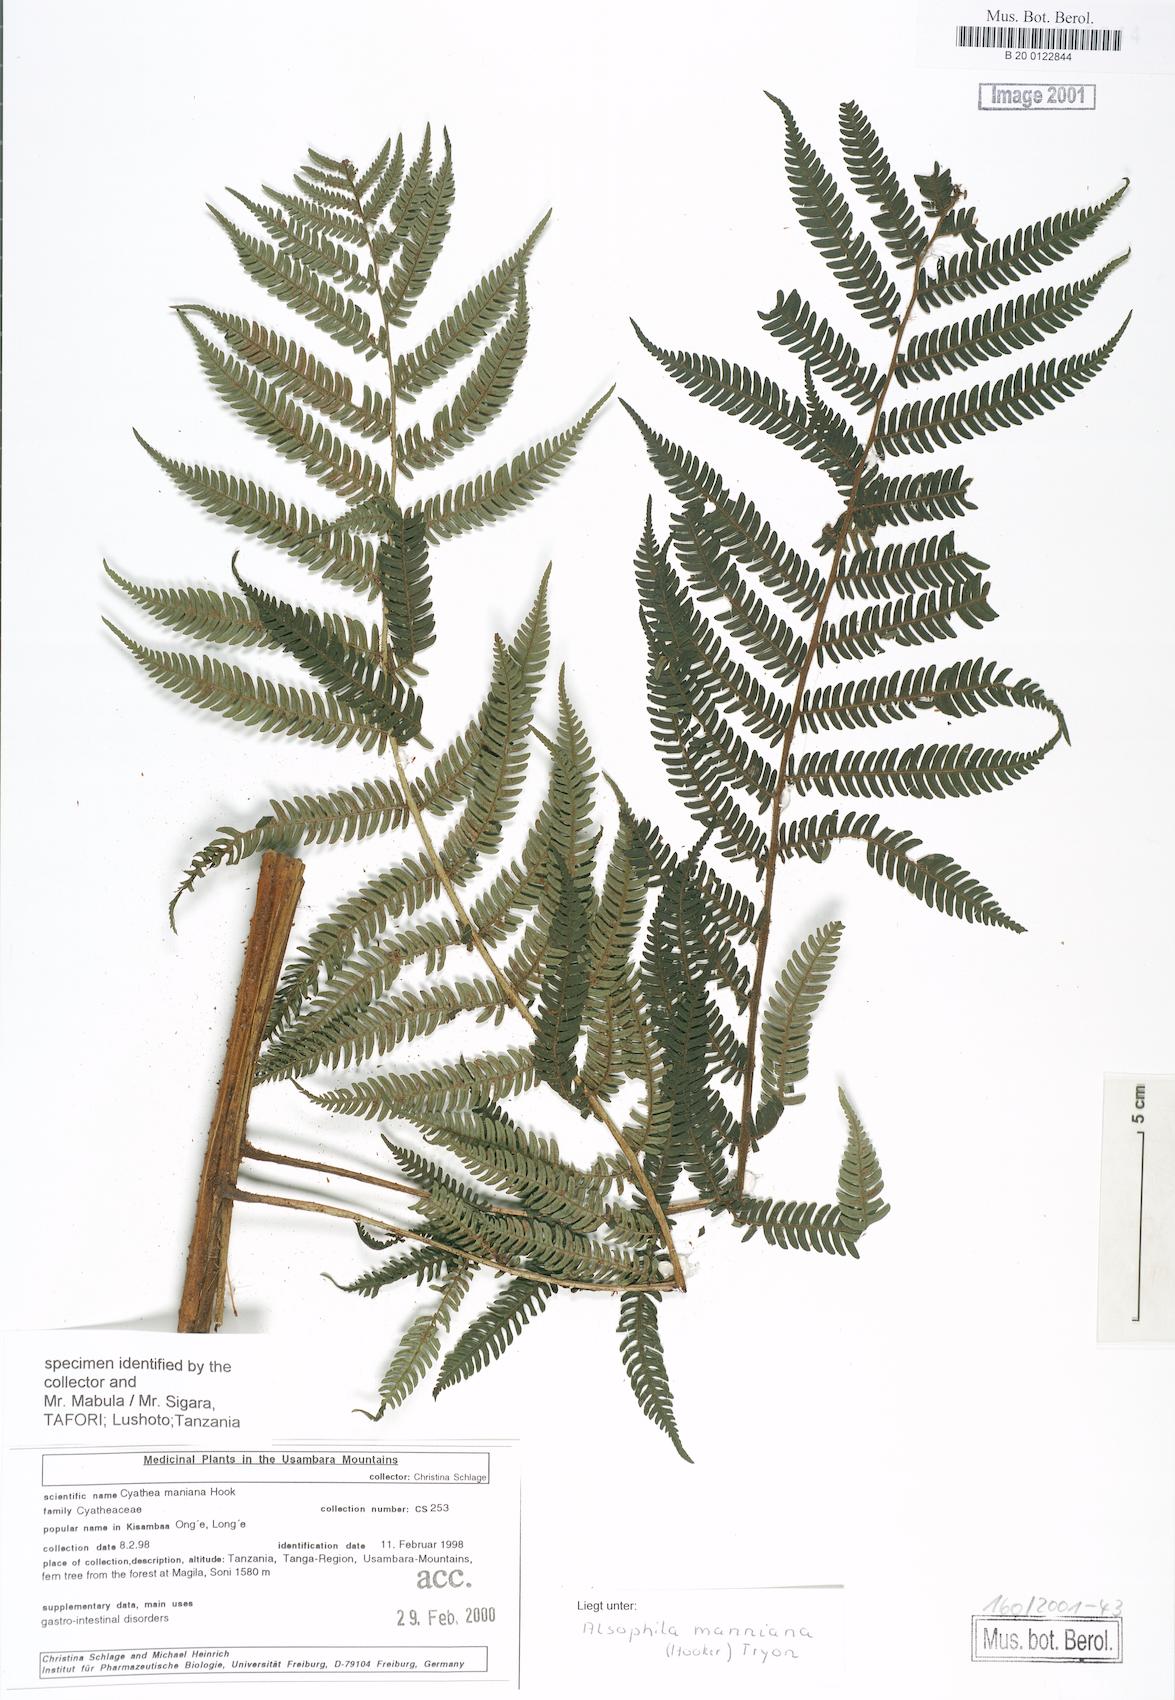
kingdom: Plantae
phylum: Tracheophyta
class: Polypodiopsida
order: Cyatheales
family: Cyatheaceae
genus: Alsophila
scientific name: Alsophila manniana
